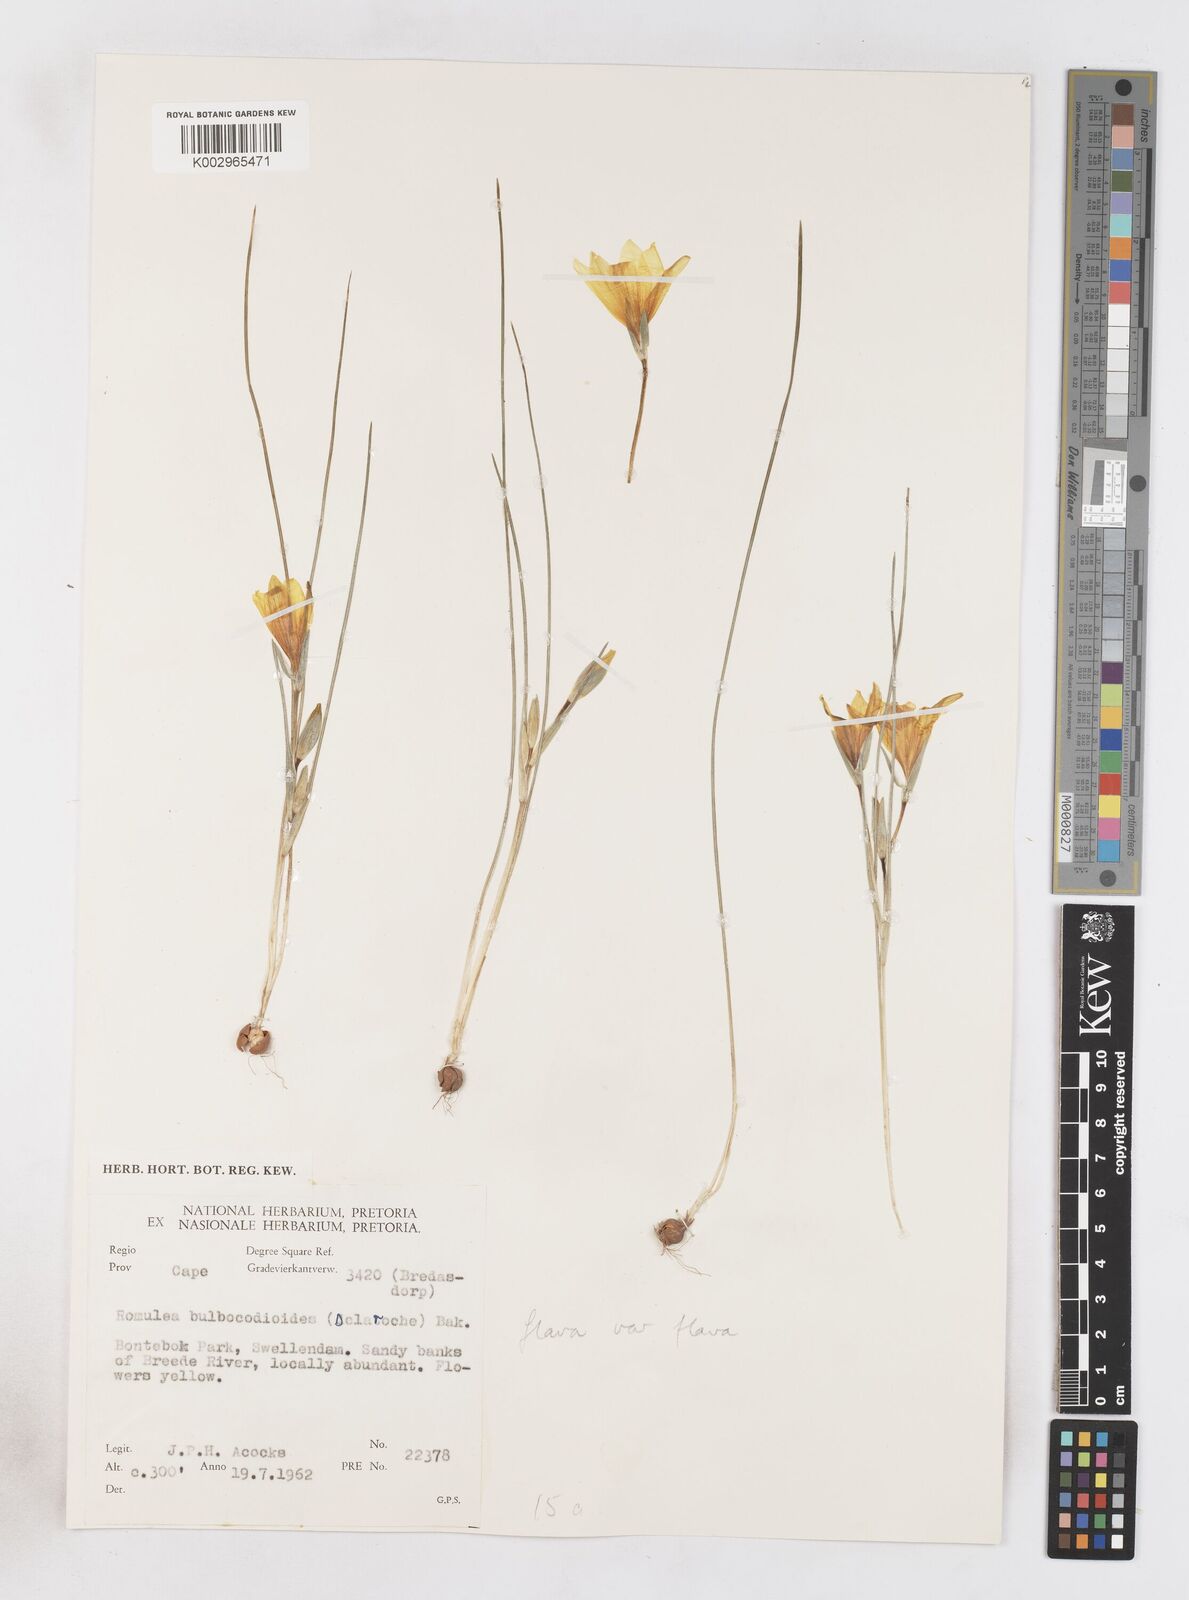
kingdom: Plantae
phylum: Tracheophyta
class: Liliopsida
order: Asparagales
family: Iridaceae
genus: Romulea
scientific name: Romulea flava
